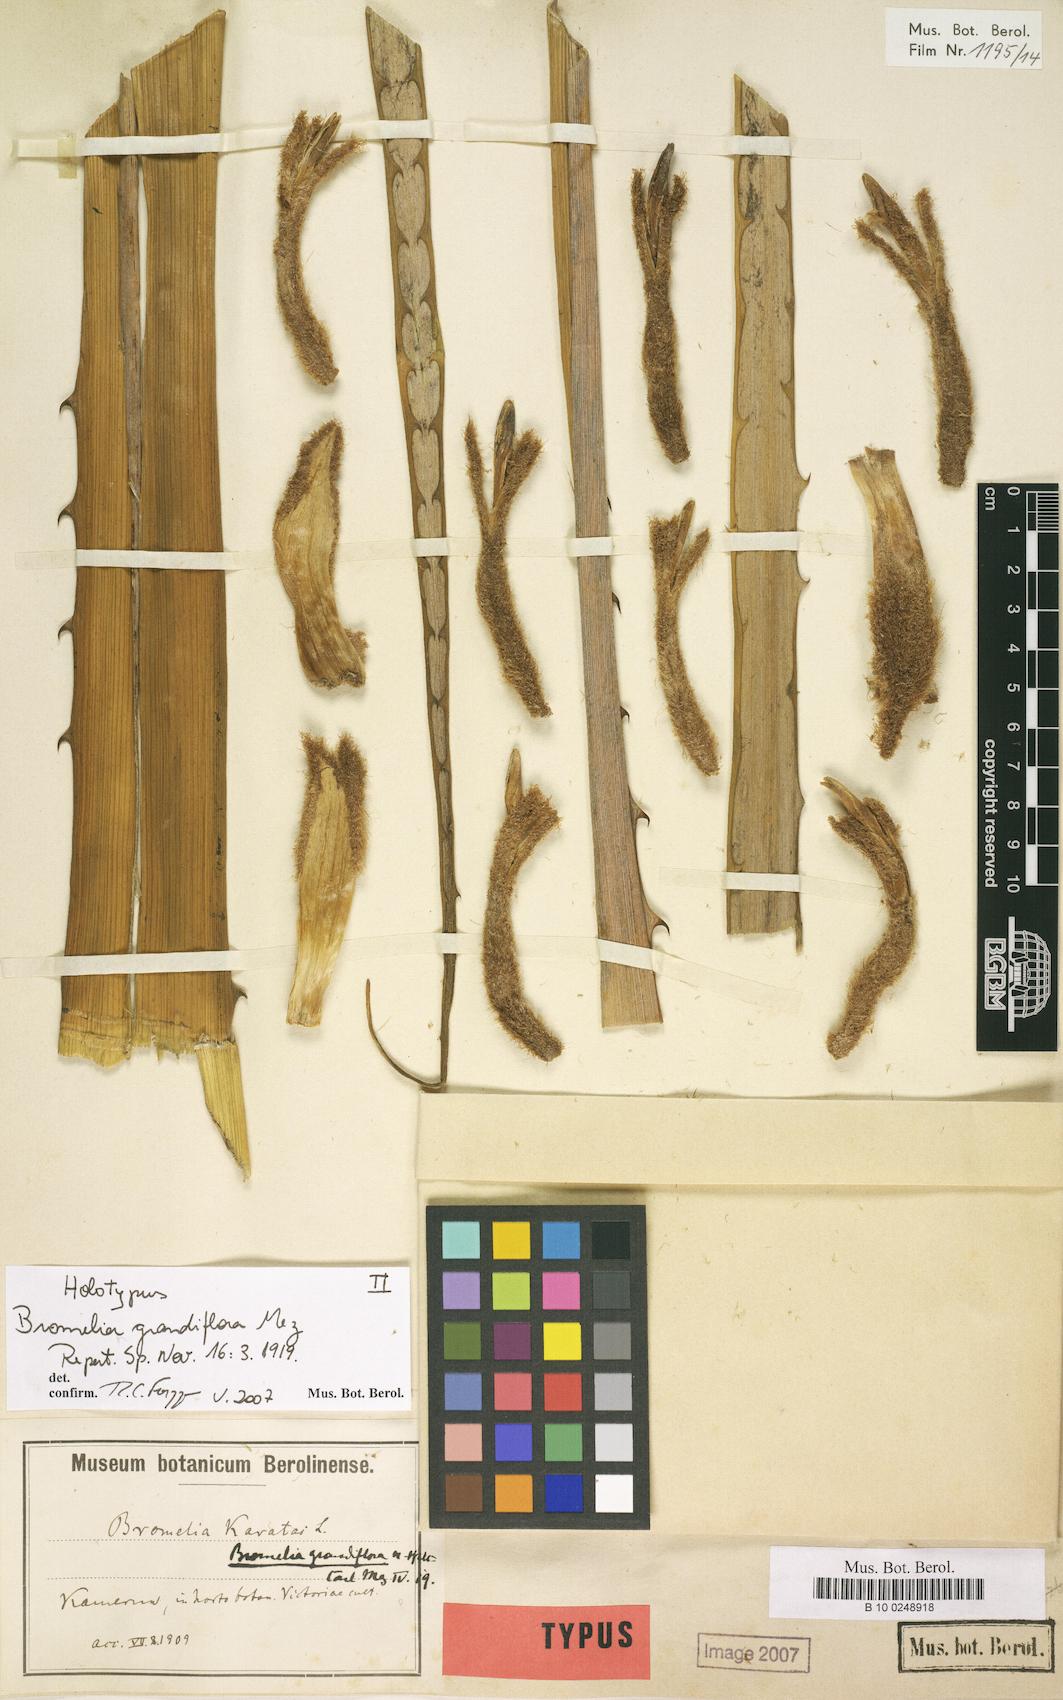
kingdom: Plantae
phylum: Tracheophyta
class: Liliopsida
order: Poales
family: Bromeliaceae
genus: Bromelia
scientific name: Bromelia grandiflora
